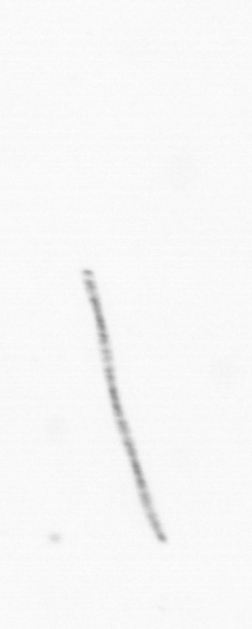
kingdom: Chromista
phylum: Ochrophyta
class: Bacillariophyceae
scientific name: Bacillariophyceae
